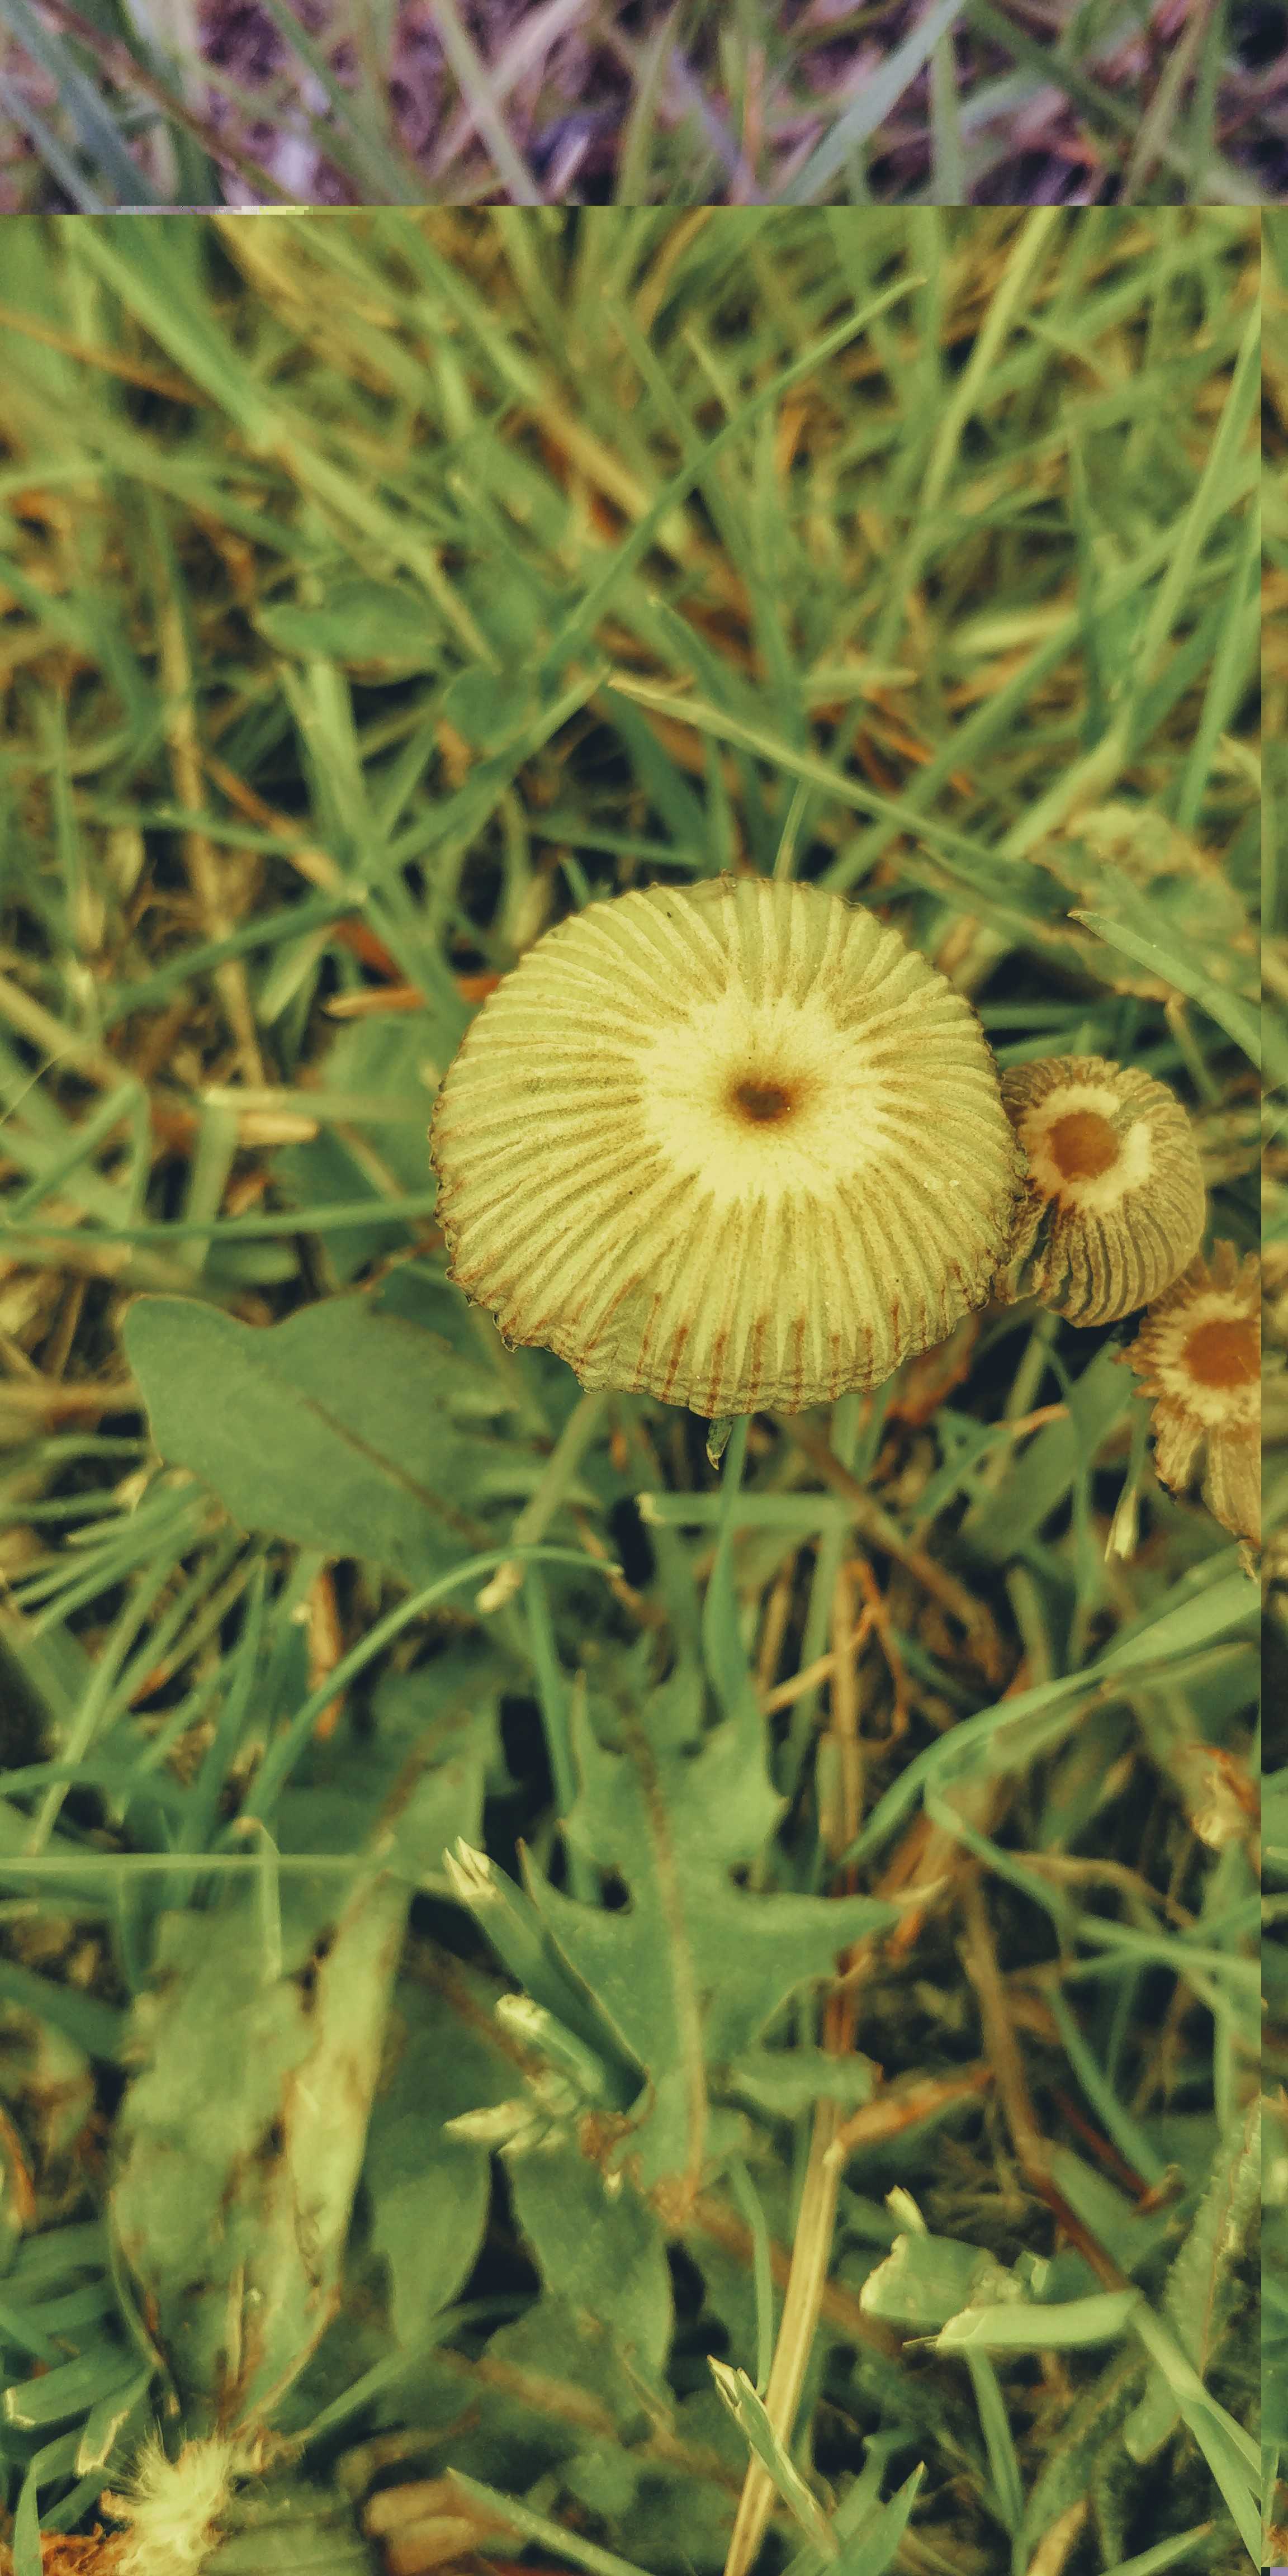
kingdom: Fungi
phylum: Basidiomycota
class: Agaricomycetes
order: Agaricales
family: Psathyrellaceae
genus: Parasola
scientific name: Parasola
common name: hjulhat
